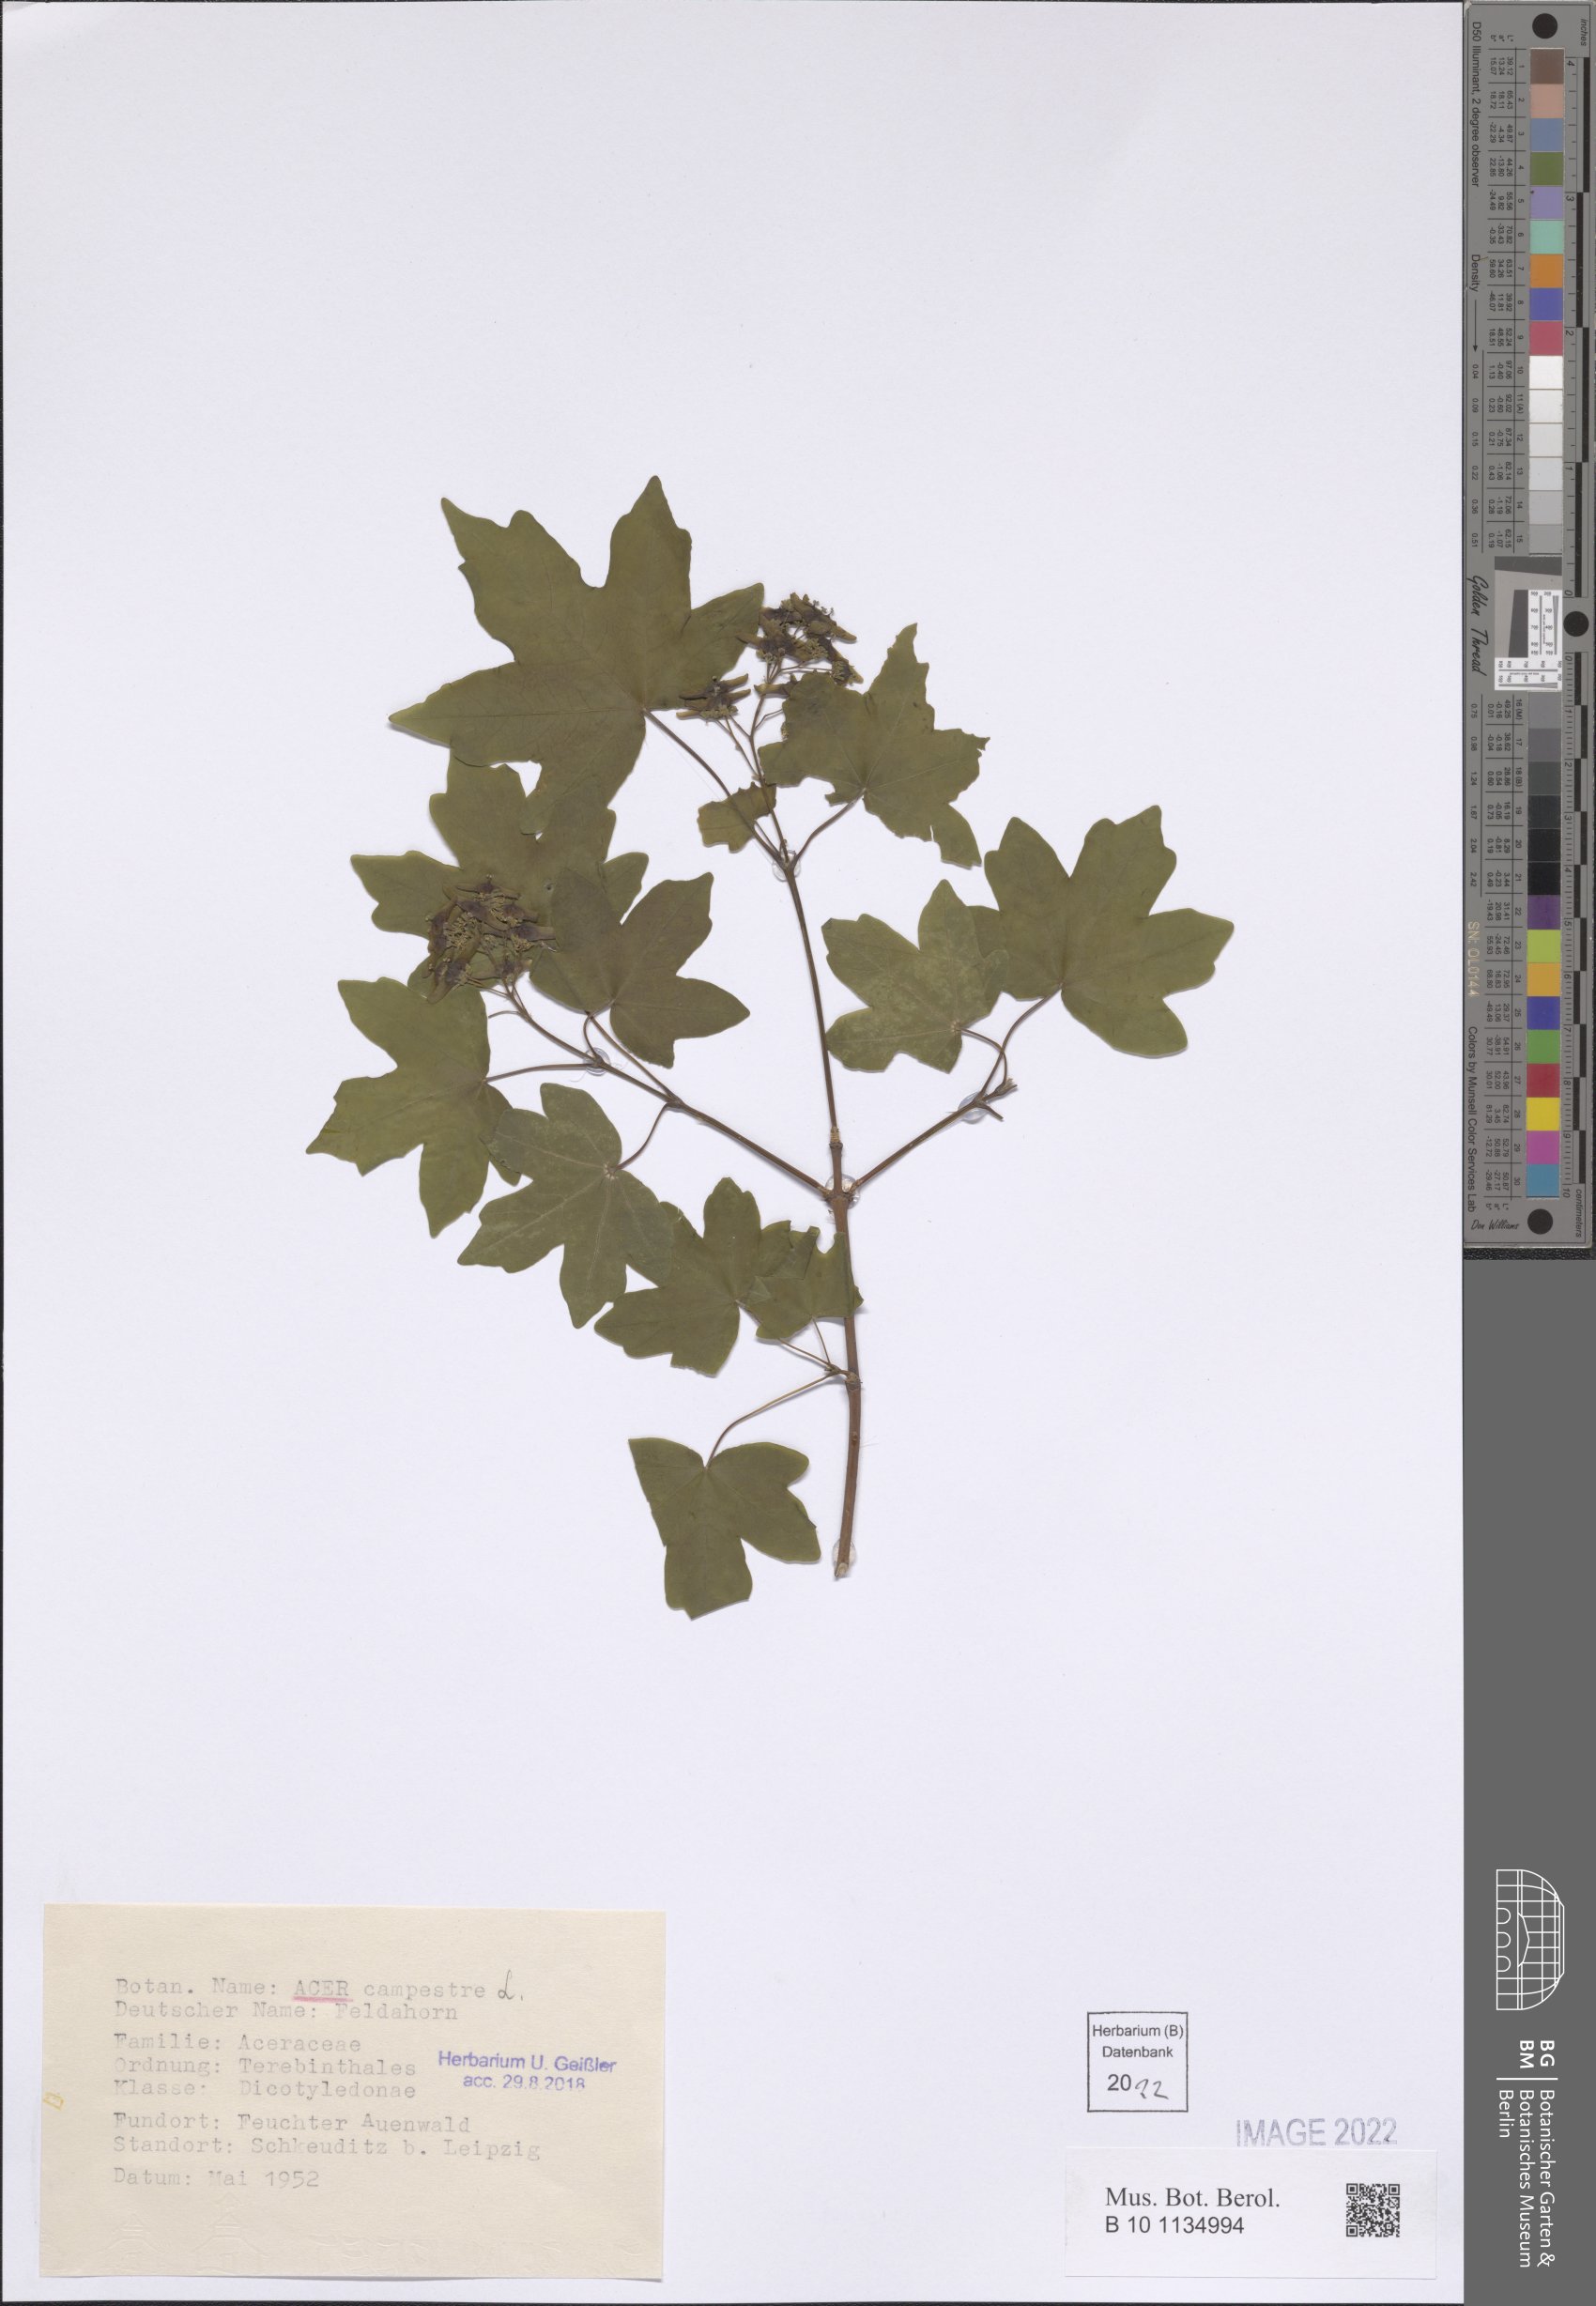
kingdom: Plantae
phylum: Tracheophyta
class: Magnoliopsida
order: Sapindales
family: Sapindaceae
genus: Acer
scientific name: Acer campestre
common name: Field maple
